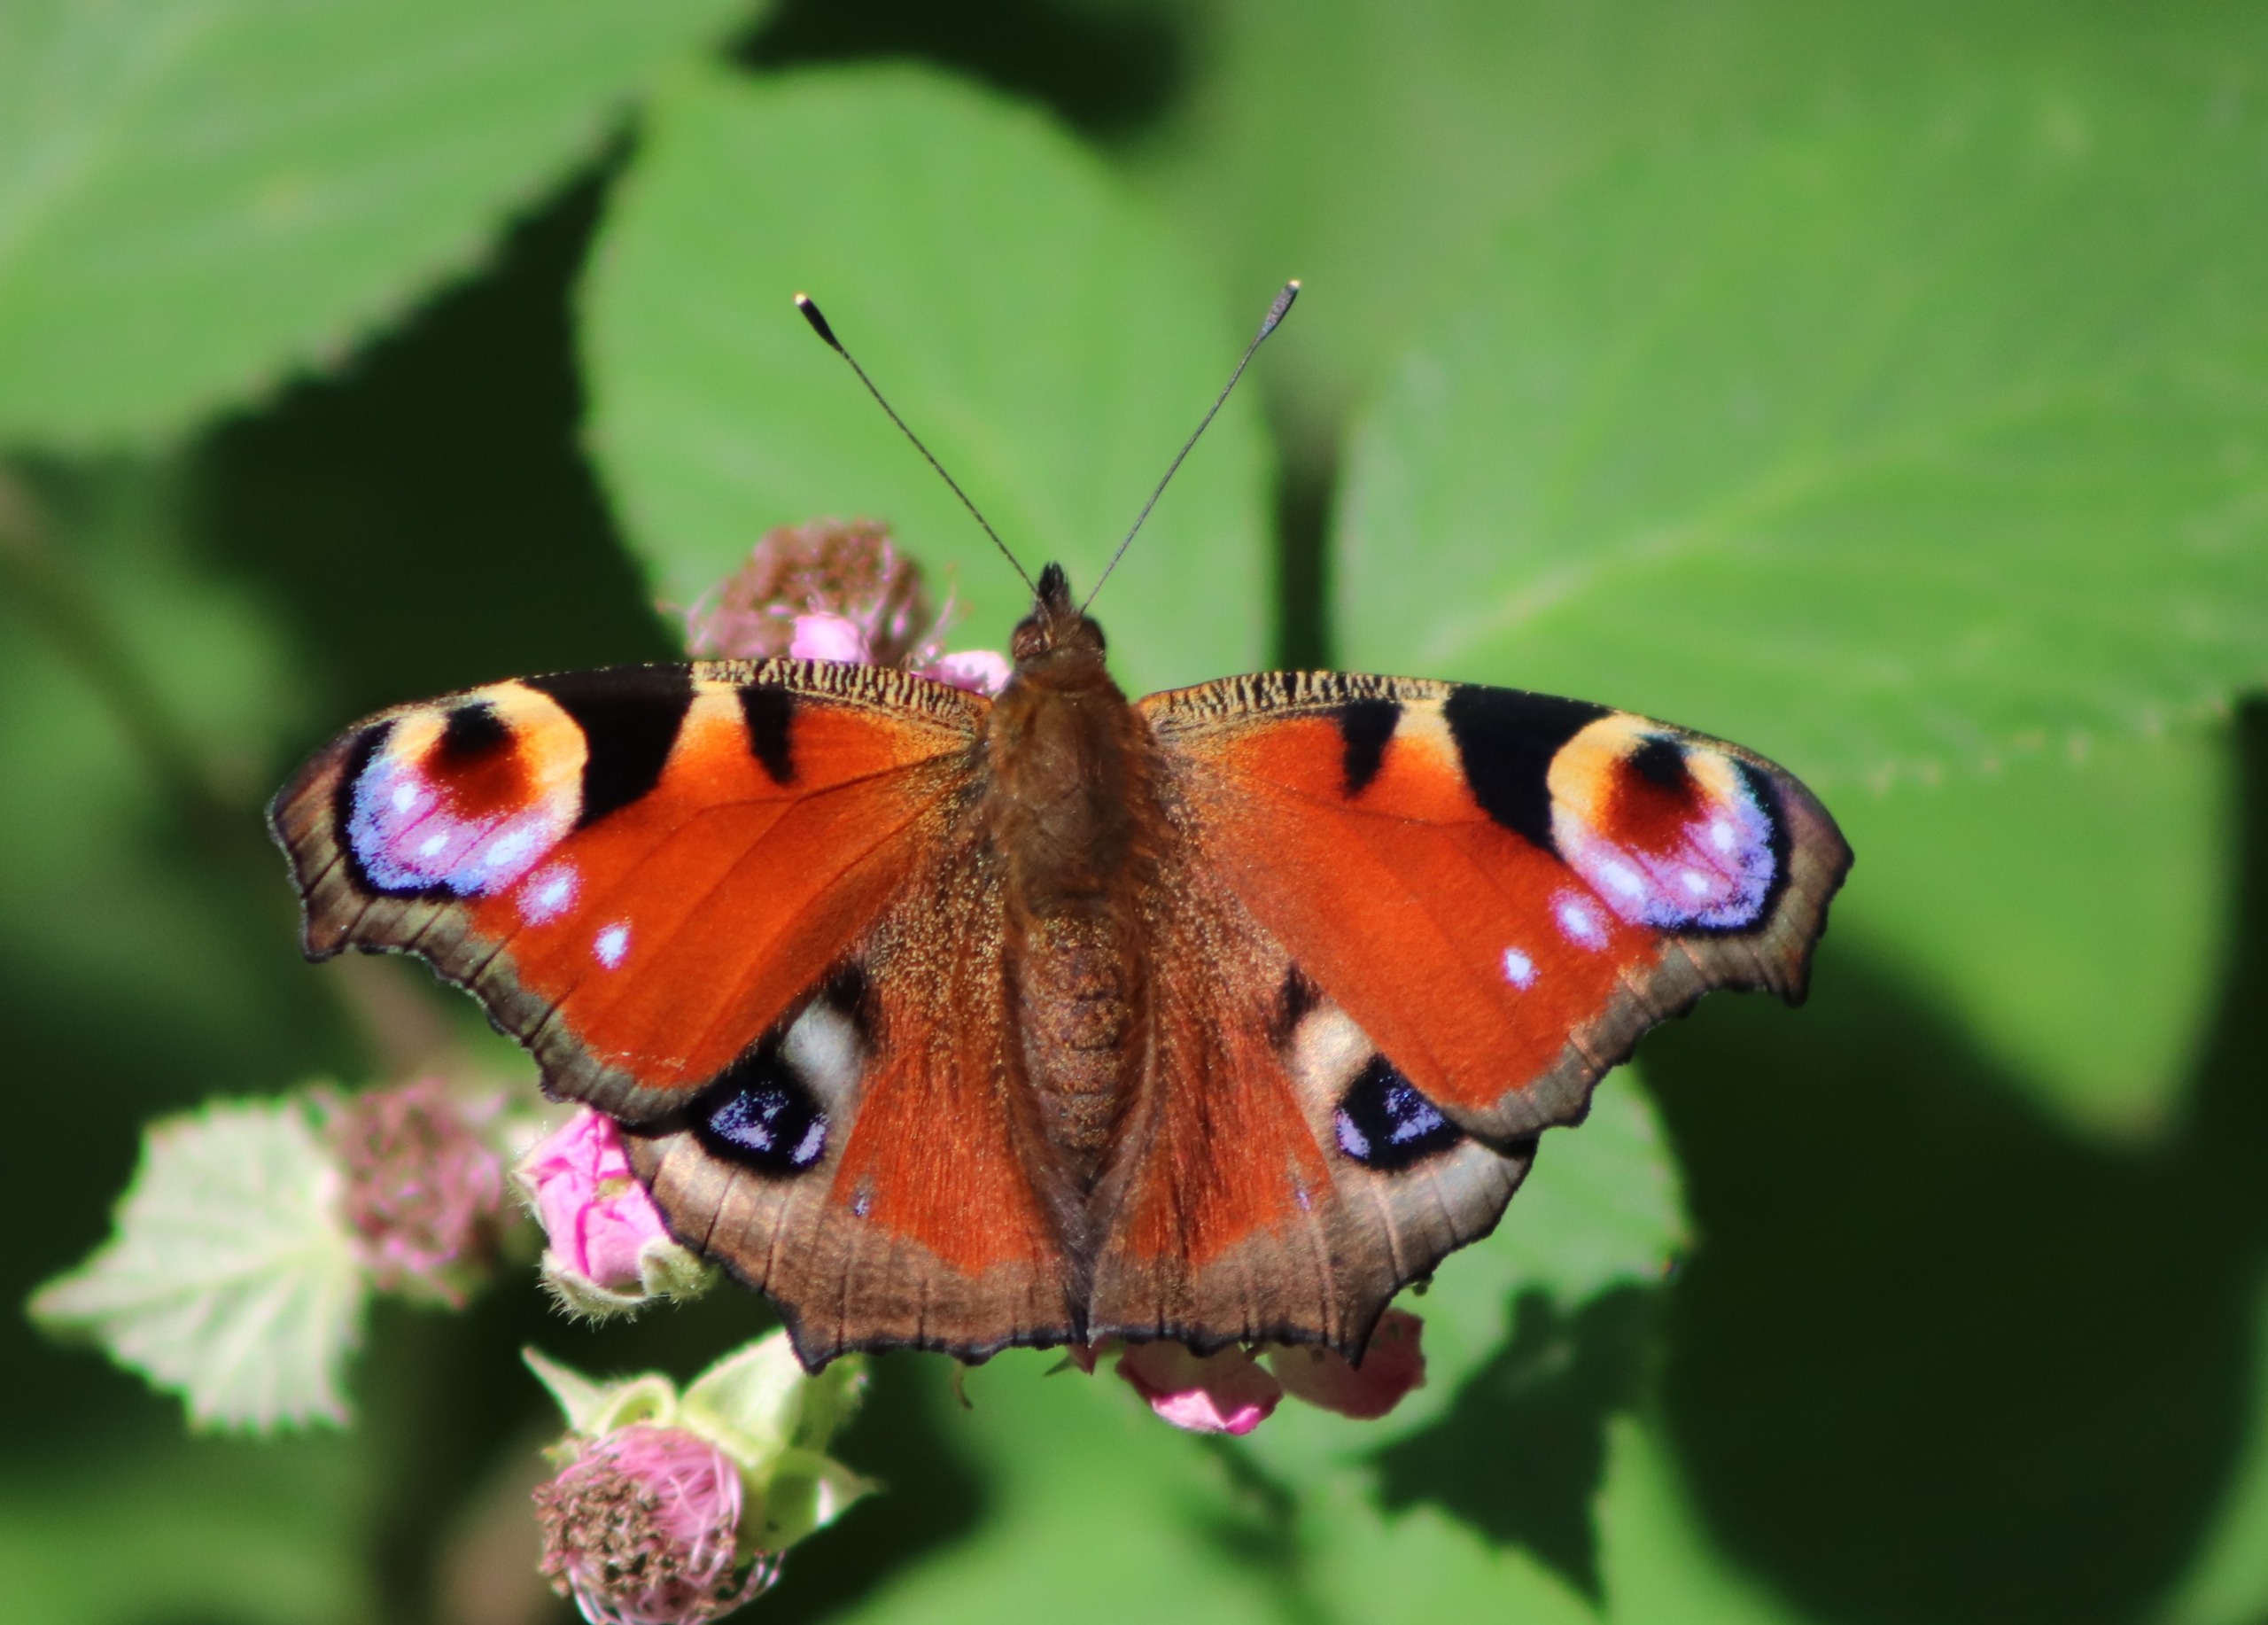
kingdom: Animalia
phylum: Arthropoda
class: Insecta
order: Lepidoptera
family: Nymphalidae
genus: Aglais
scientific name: Aglais io
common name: Dagpåfugleøje
